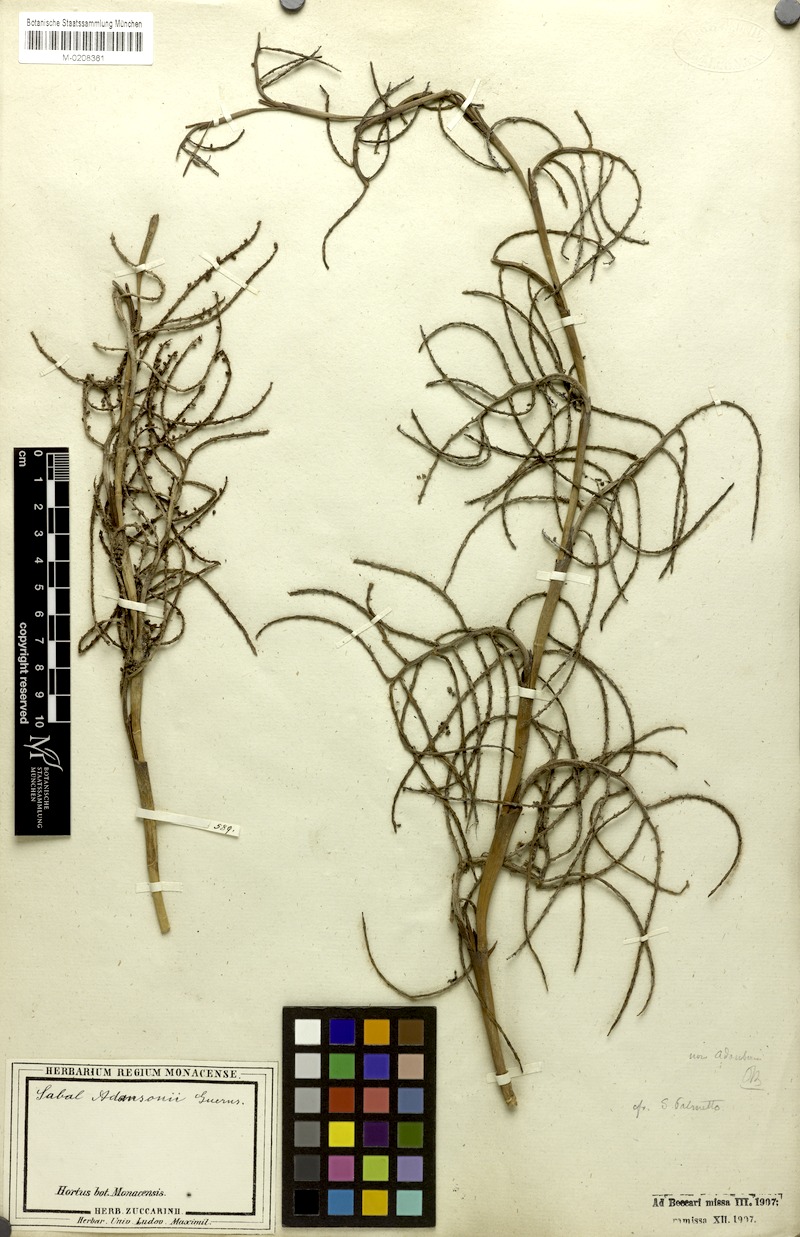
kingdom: Plantae
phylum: Tracheophyta
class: Liliopsida
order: Arecales
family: Arecaceae
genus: Sabal
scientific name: Sabal minor
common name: Dwarf palmetto
